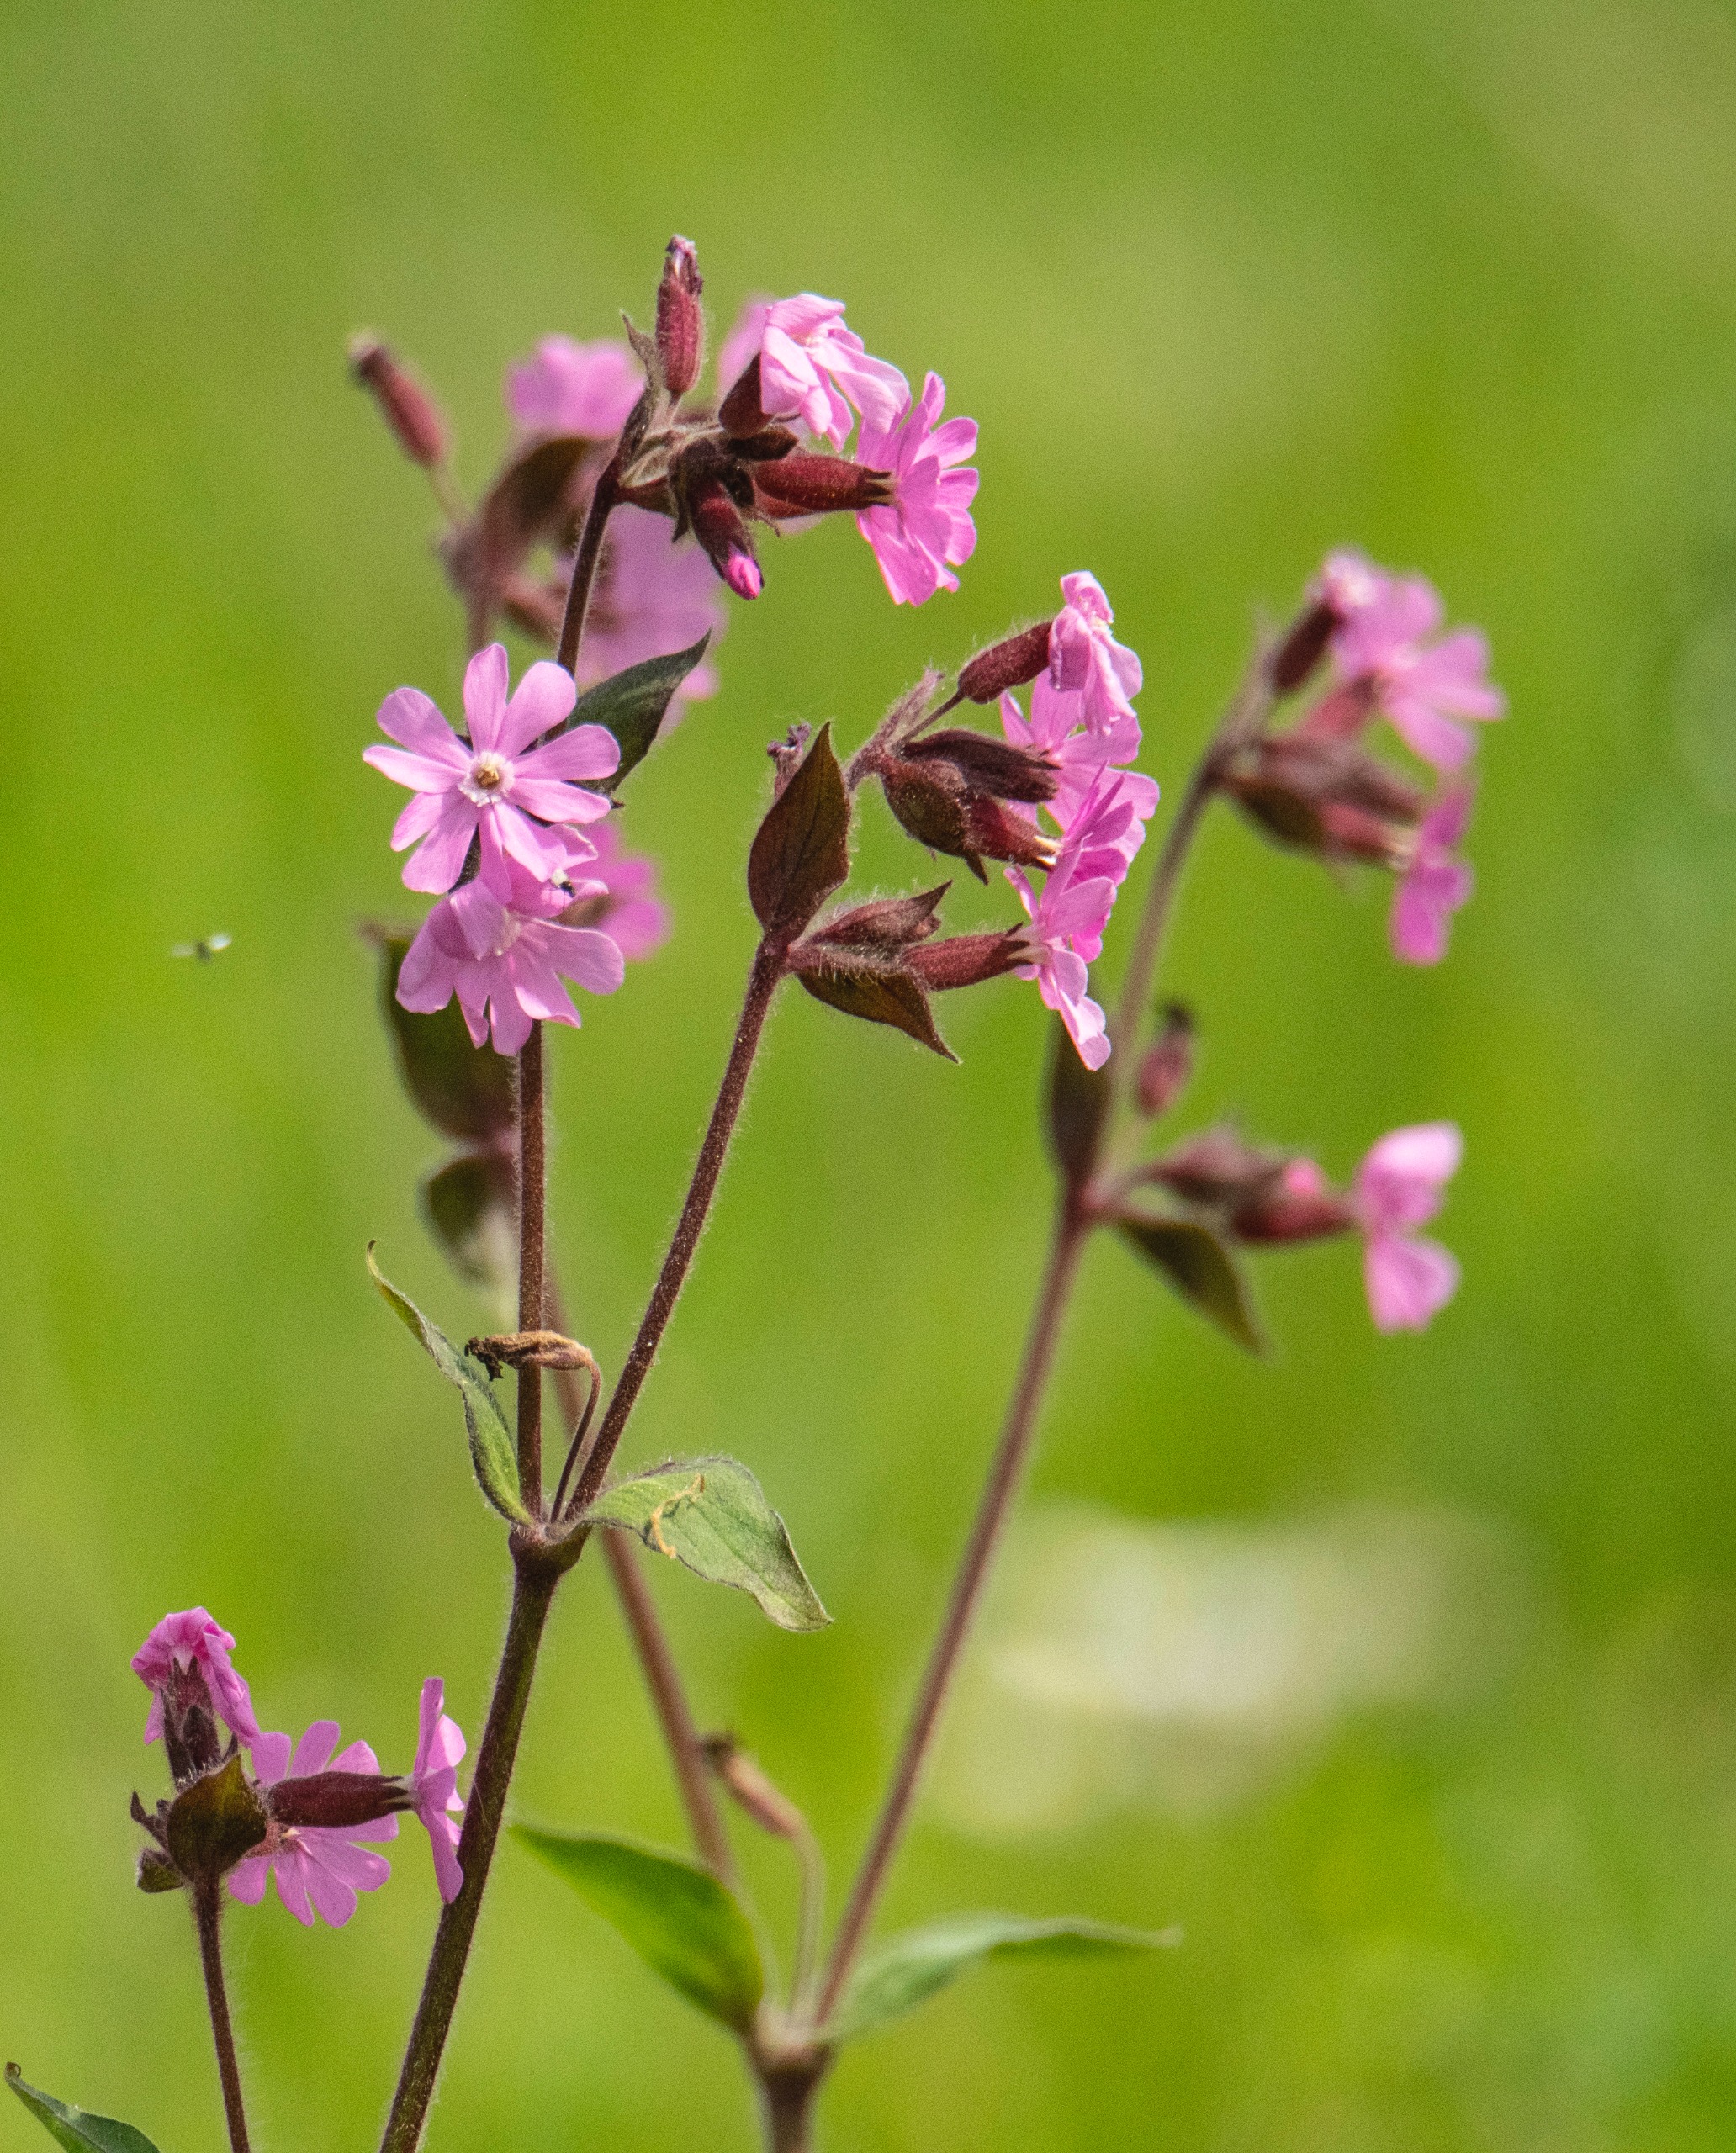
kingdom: Plantae
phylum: Tracheophyta
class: Magnoliopsida
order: Caryophyllales
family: Caryophyllaceae
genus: Silene
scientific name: Silene dioica
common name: Dagpragtstjerne
